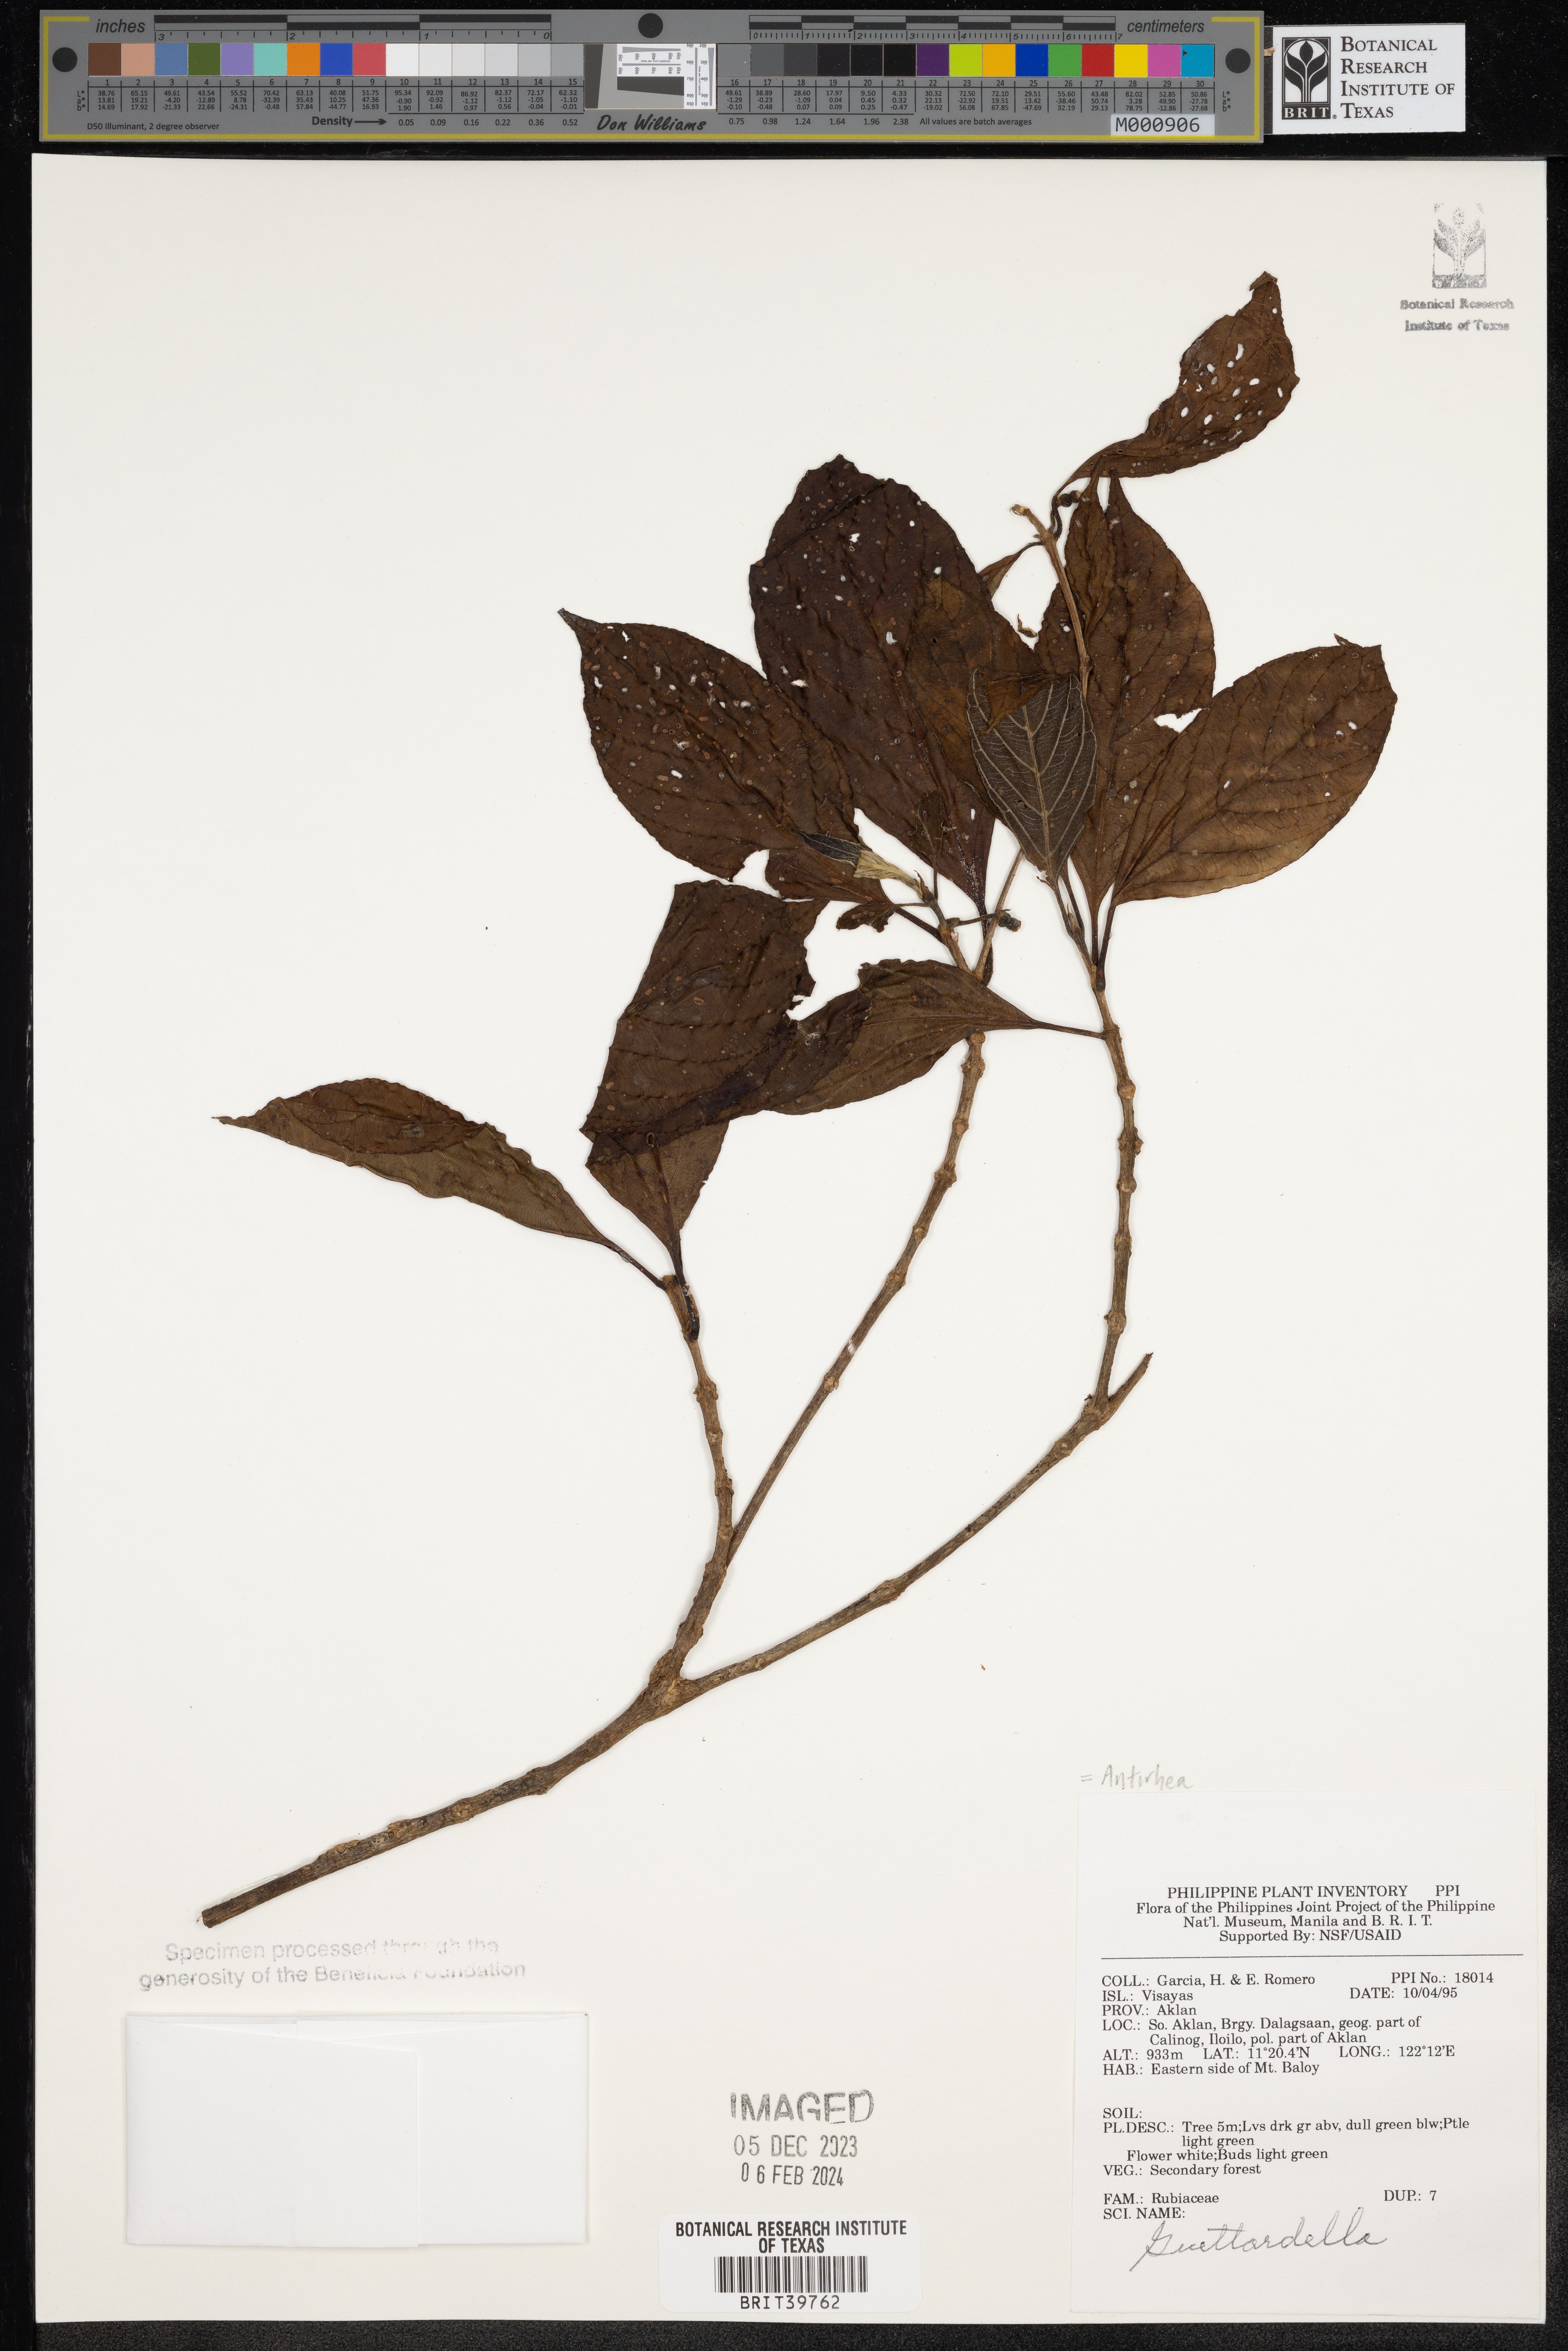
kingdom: Plantae
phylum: Tracheophyta
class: Magnoliopsida
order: Gentianales
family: Rubiaceae
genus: Antirhea
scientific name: Antirhea
